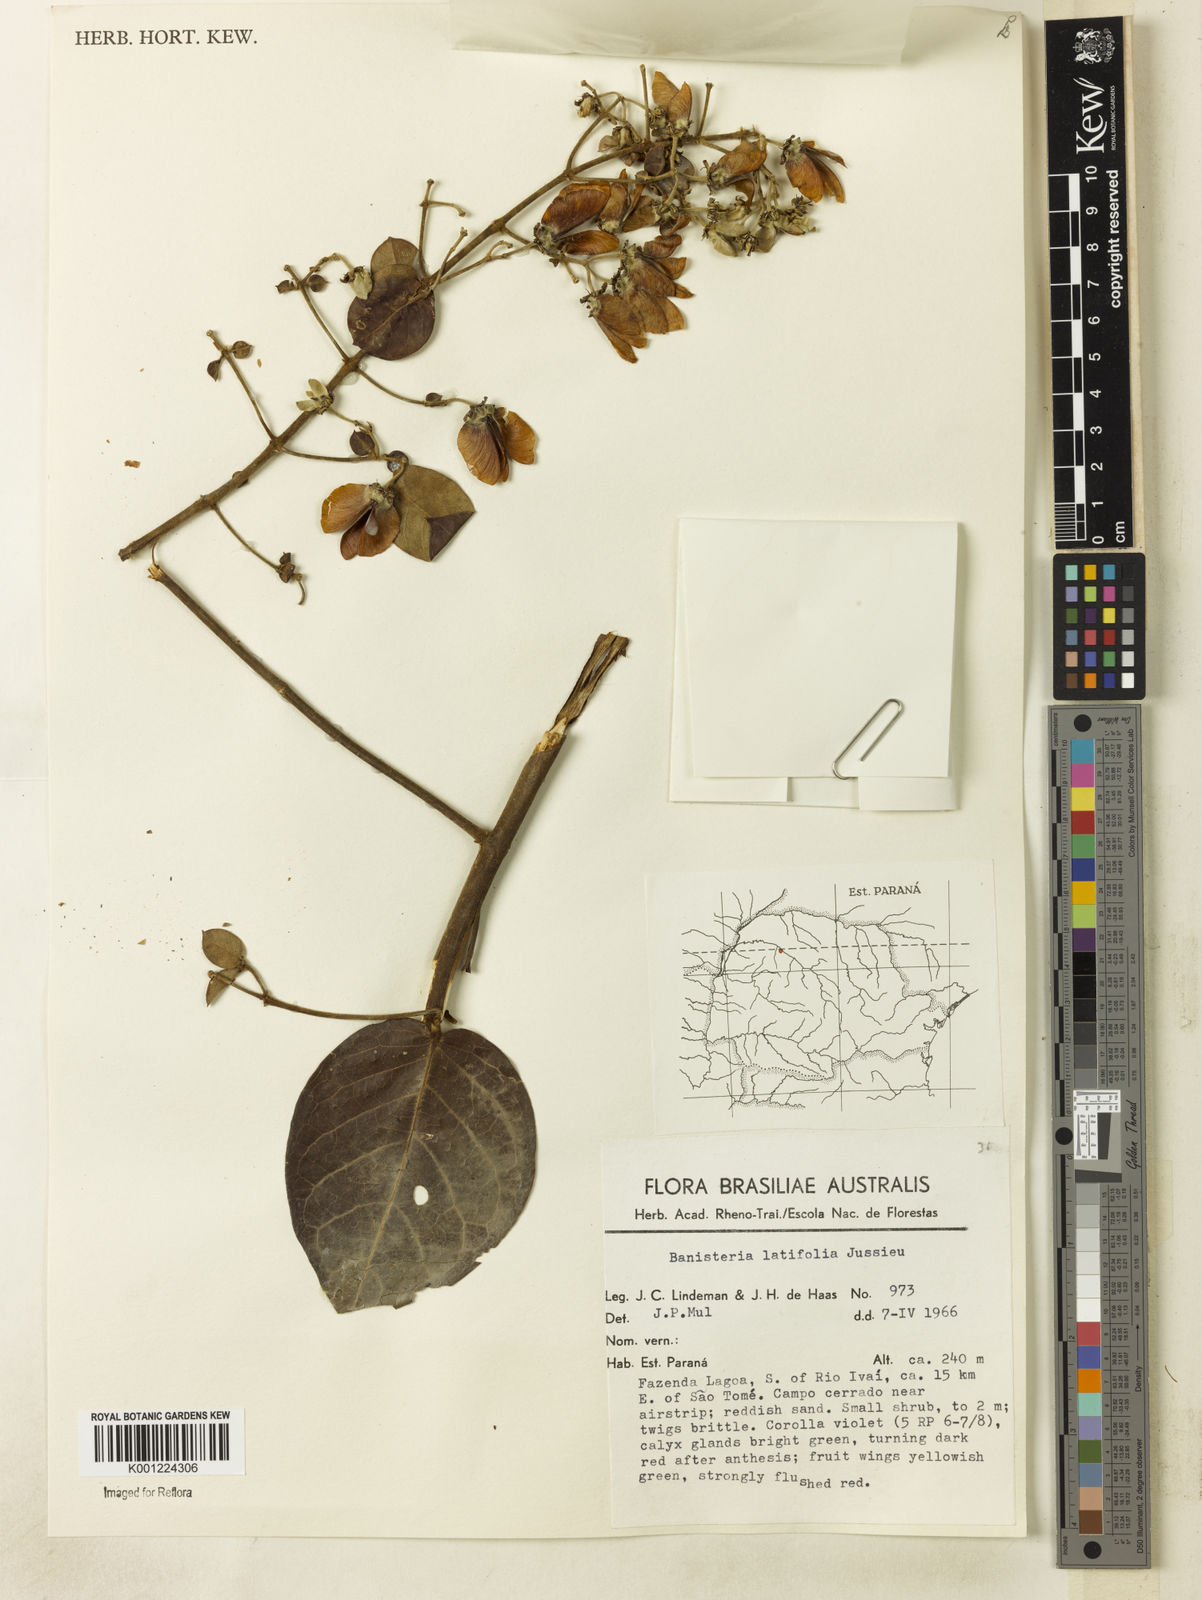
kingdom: Plantae
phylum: Tracheophyta
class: Magnoliopsida
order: Malpighiales
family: Malpighiaceae
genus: Banisteriopsis
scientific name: Banisteriopsis latifolia
